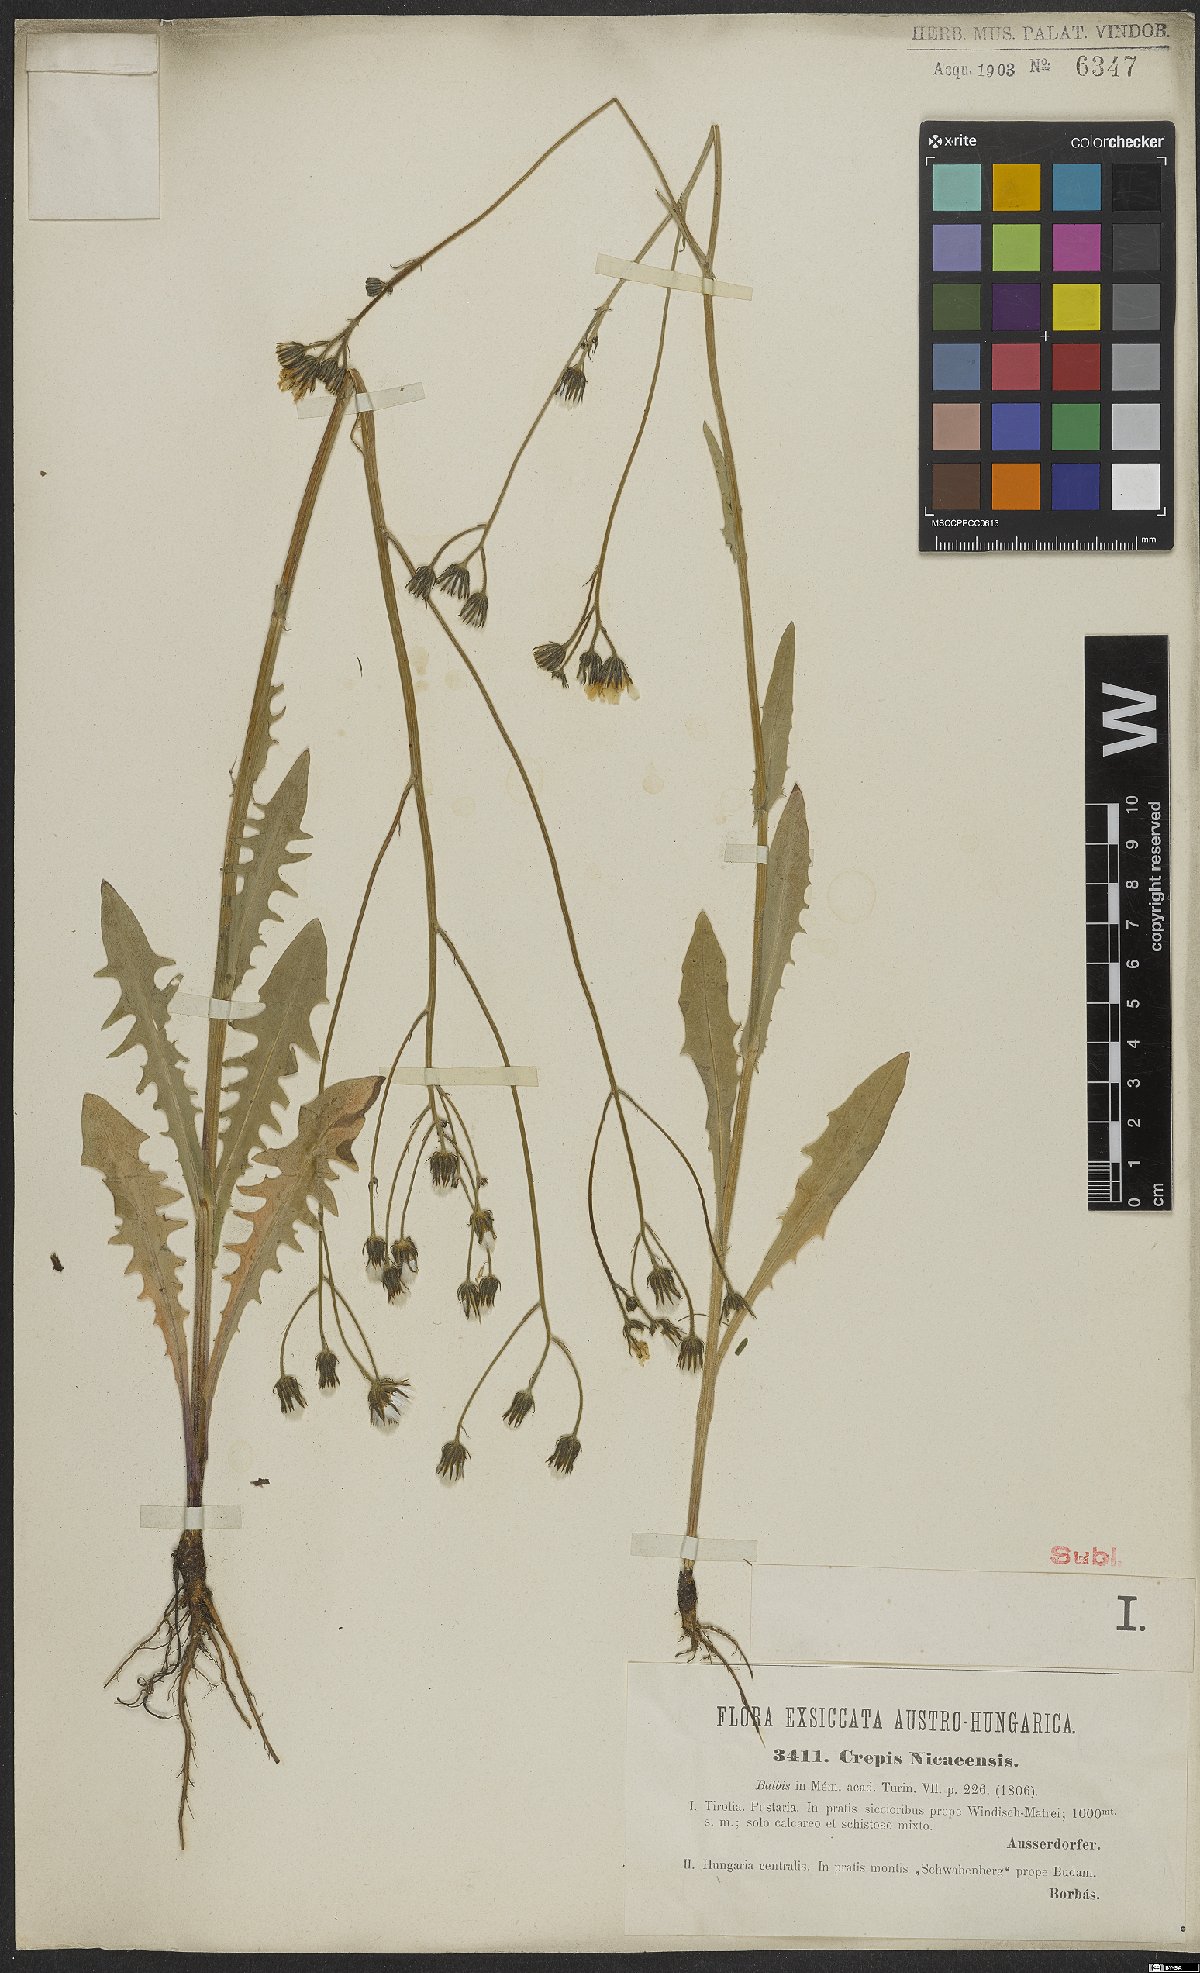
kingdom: Plantae
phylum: Tracheophyta
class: Magnoliopsida
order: Asterales
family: Asteraceae
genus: Crepis
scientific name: Crepis nicaeensis
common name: Turkish hawksbeard
